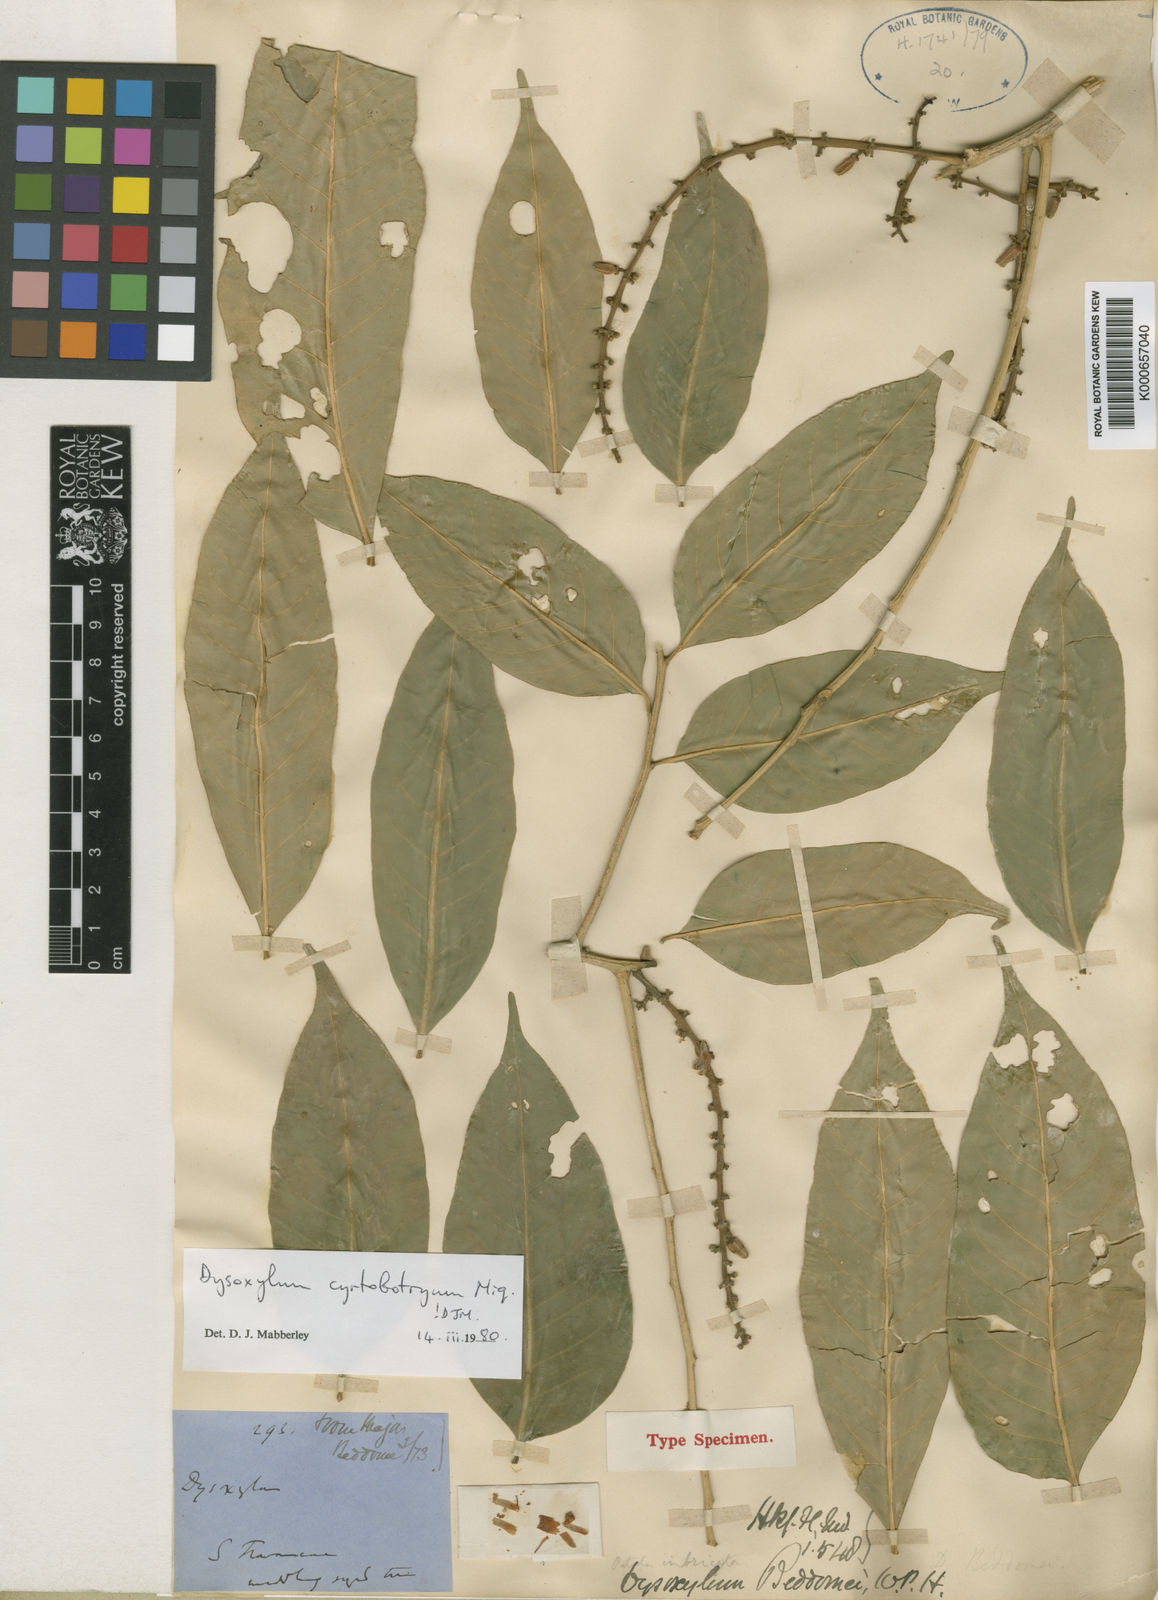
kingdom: Plantae
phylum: Tracheophyta
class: Magnoliopsida
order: Sapindales
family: Meliaceae
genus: Dysoxylum
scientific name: Dysoxylum cyrtobotryum
